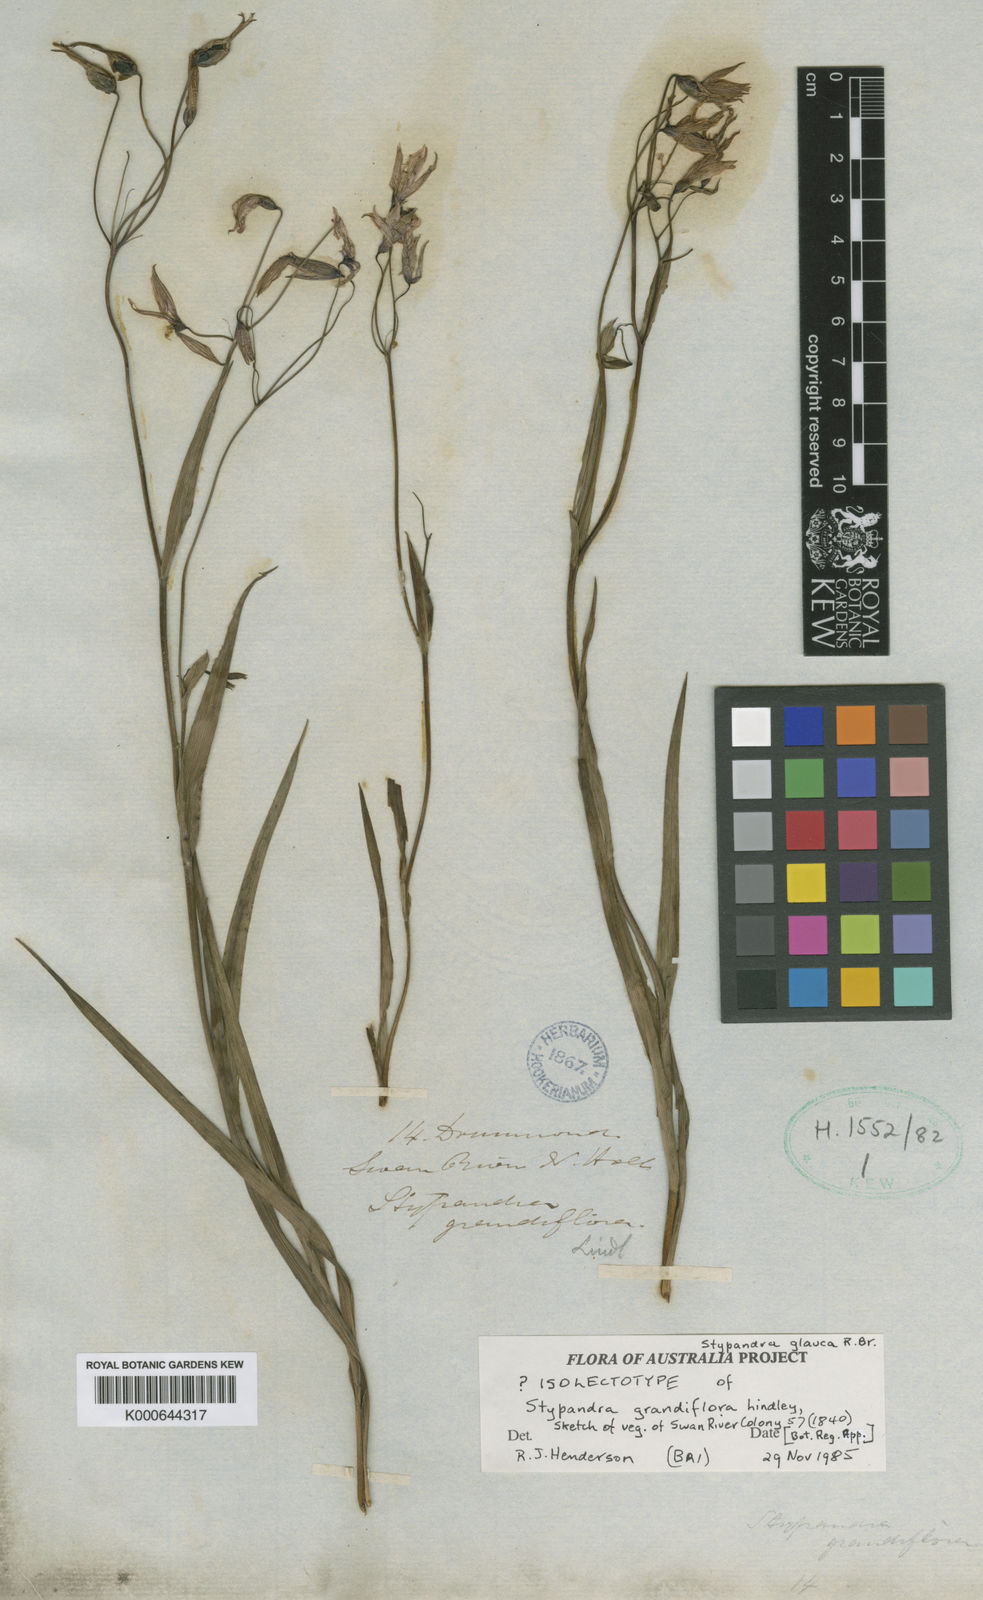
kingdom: Plantae
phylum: Tracheophyta
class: Liliopsida
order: Asparagales
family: Asphodelaceae
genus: Stypandra
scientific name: Stypandra glauca
